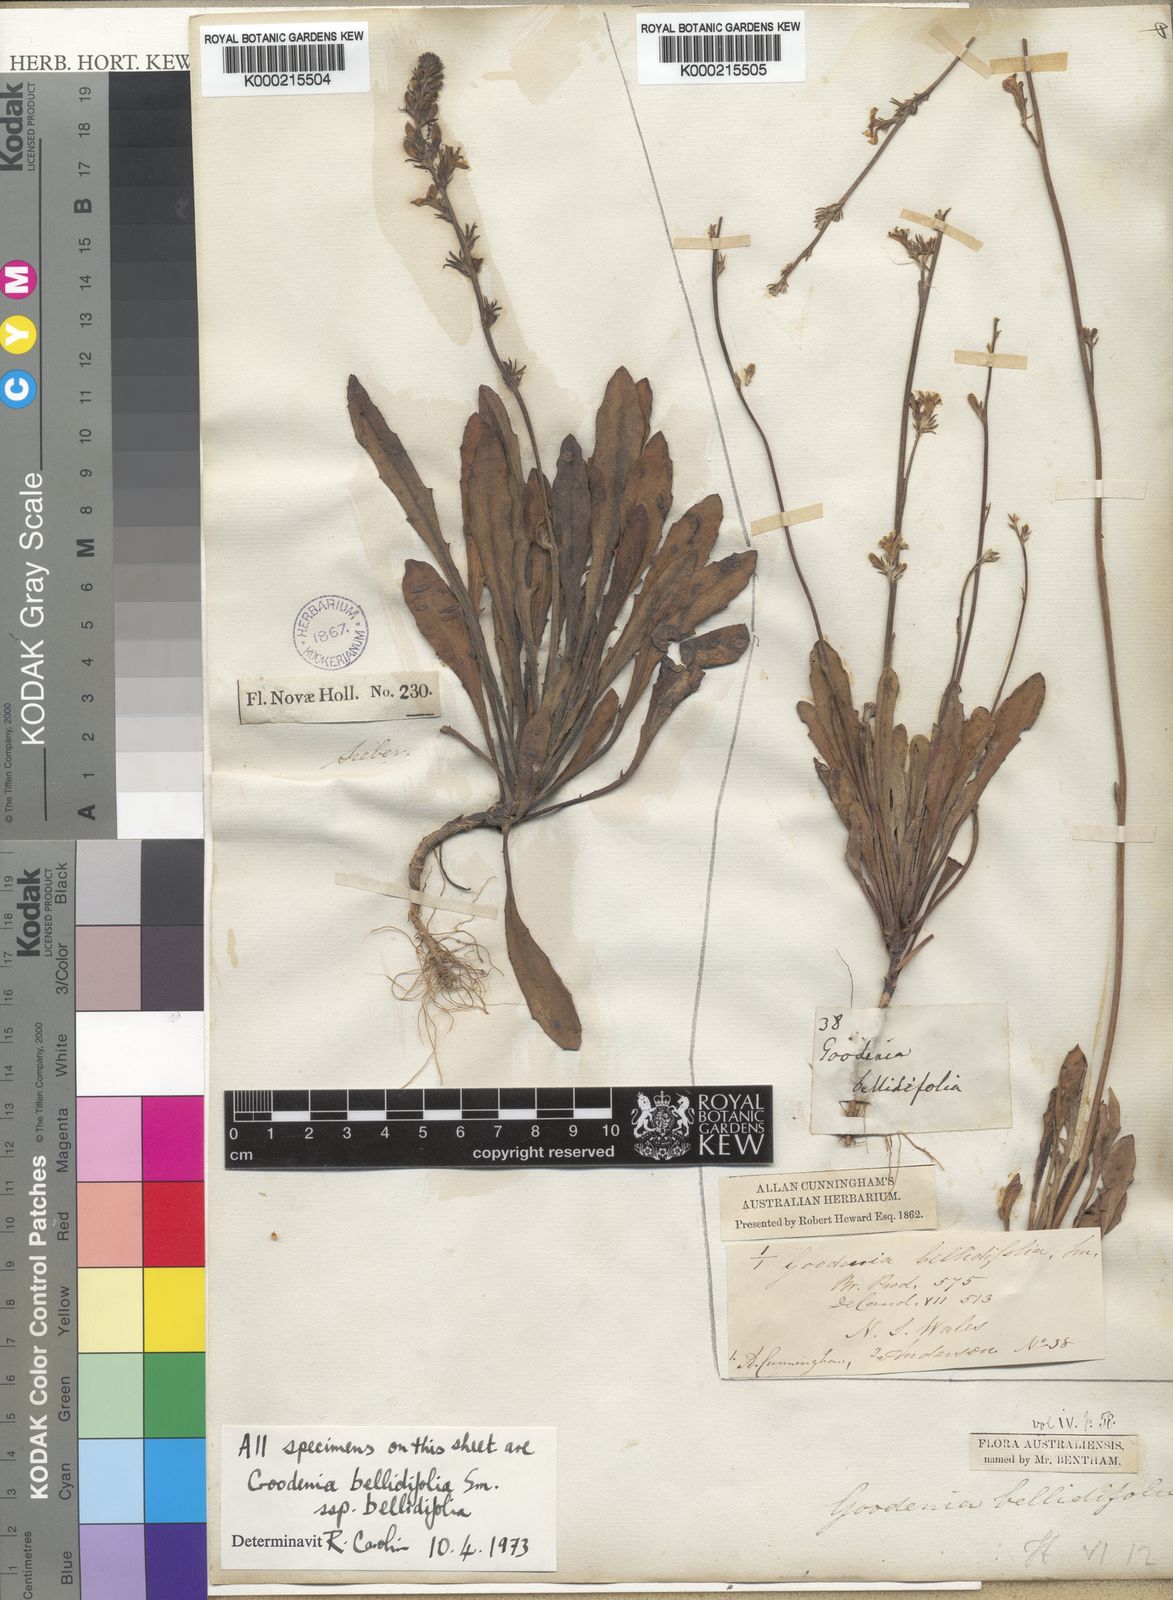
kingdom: Plantae
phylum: Tracheophyta
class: Magnoliopsida
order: Asterales
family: Goodeniaceae
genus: Goodenia
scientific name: Goodenia bellidifolia
